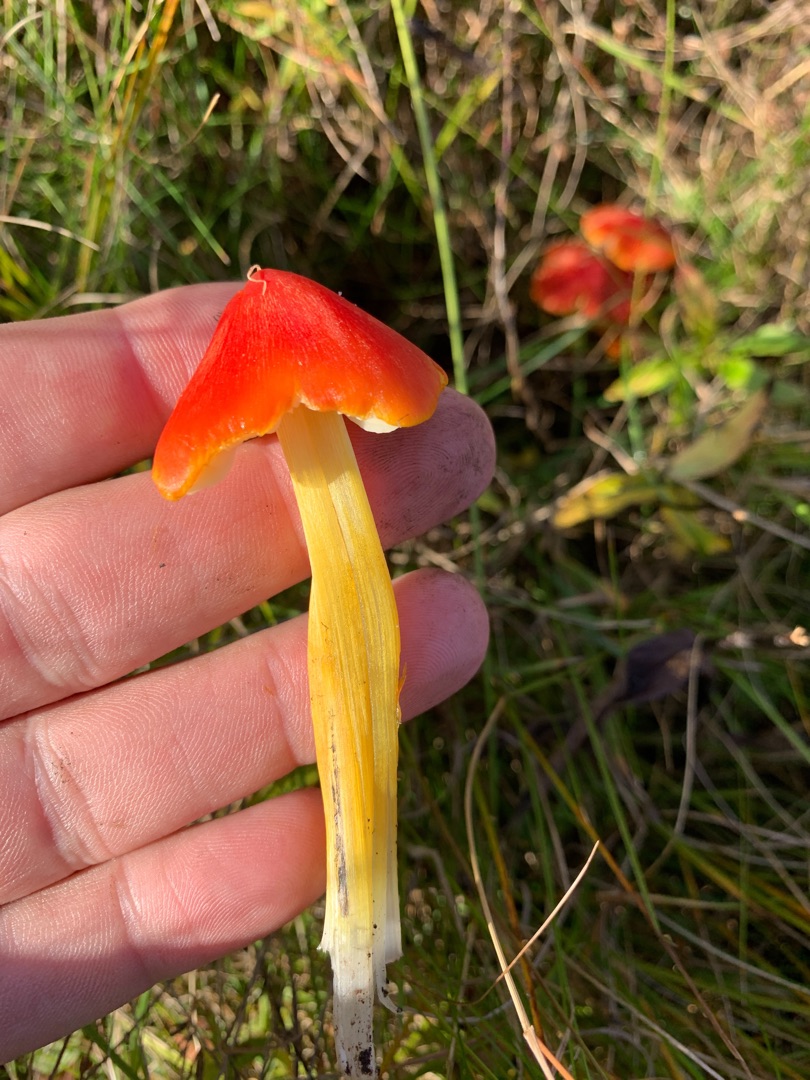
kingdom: Fungi
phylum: Basidiomycota
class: Agaricomycetes
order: Agaricales
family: Hygrophoraceae
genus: Hygrocybe
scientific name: Hygrocybe conica
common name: Kegle-vokshat
